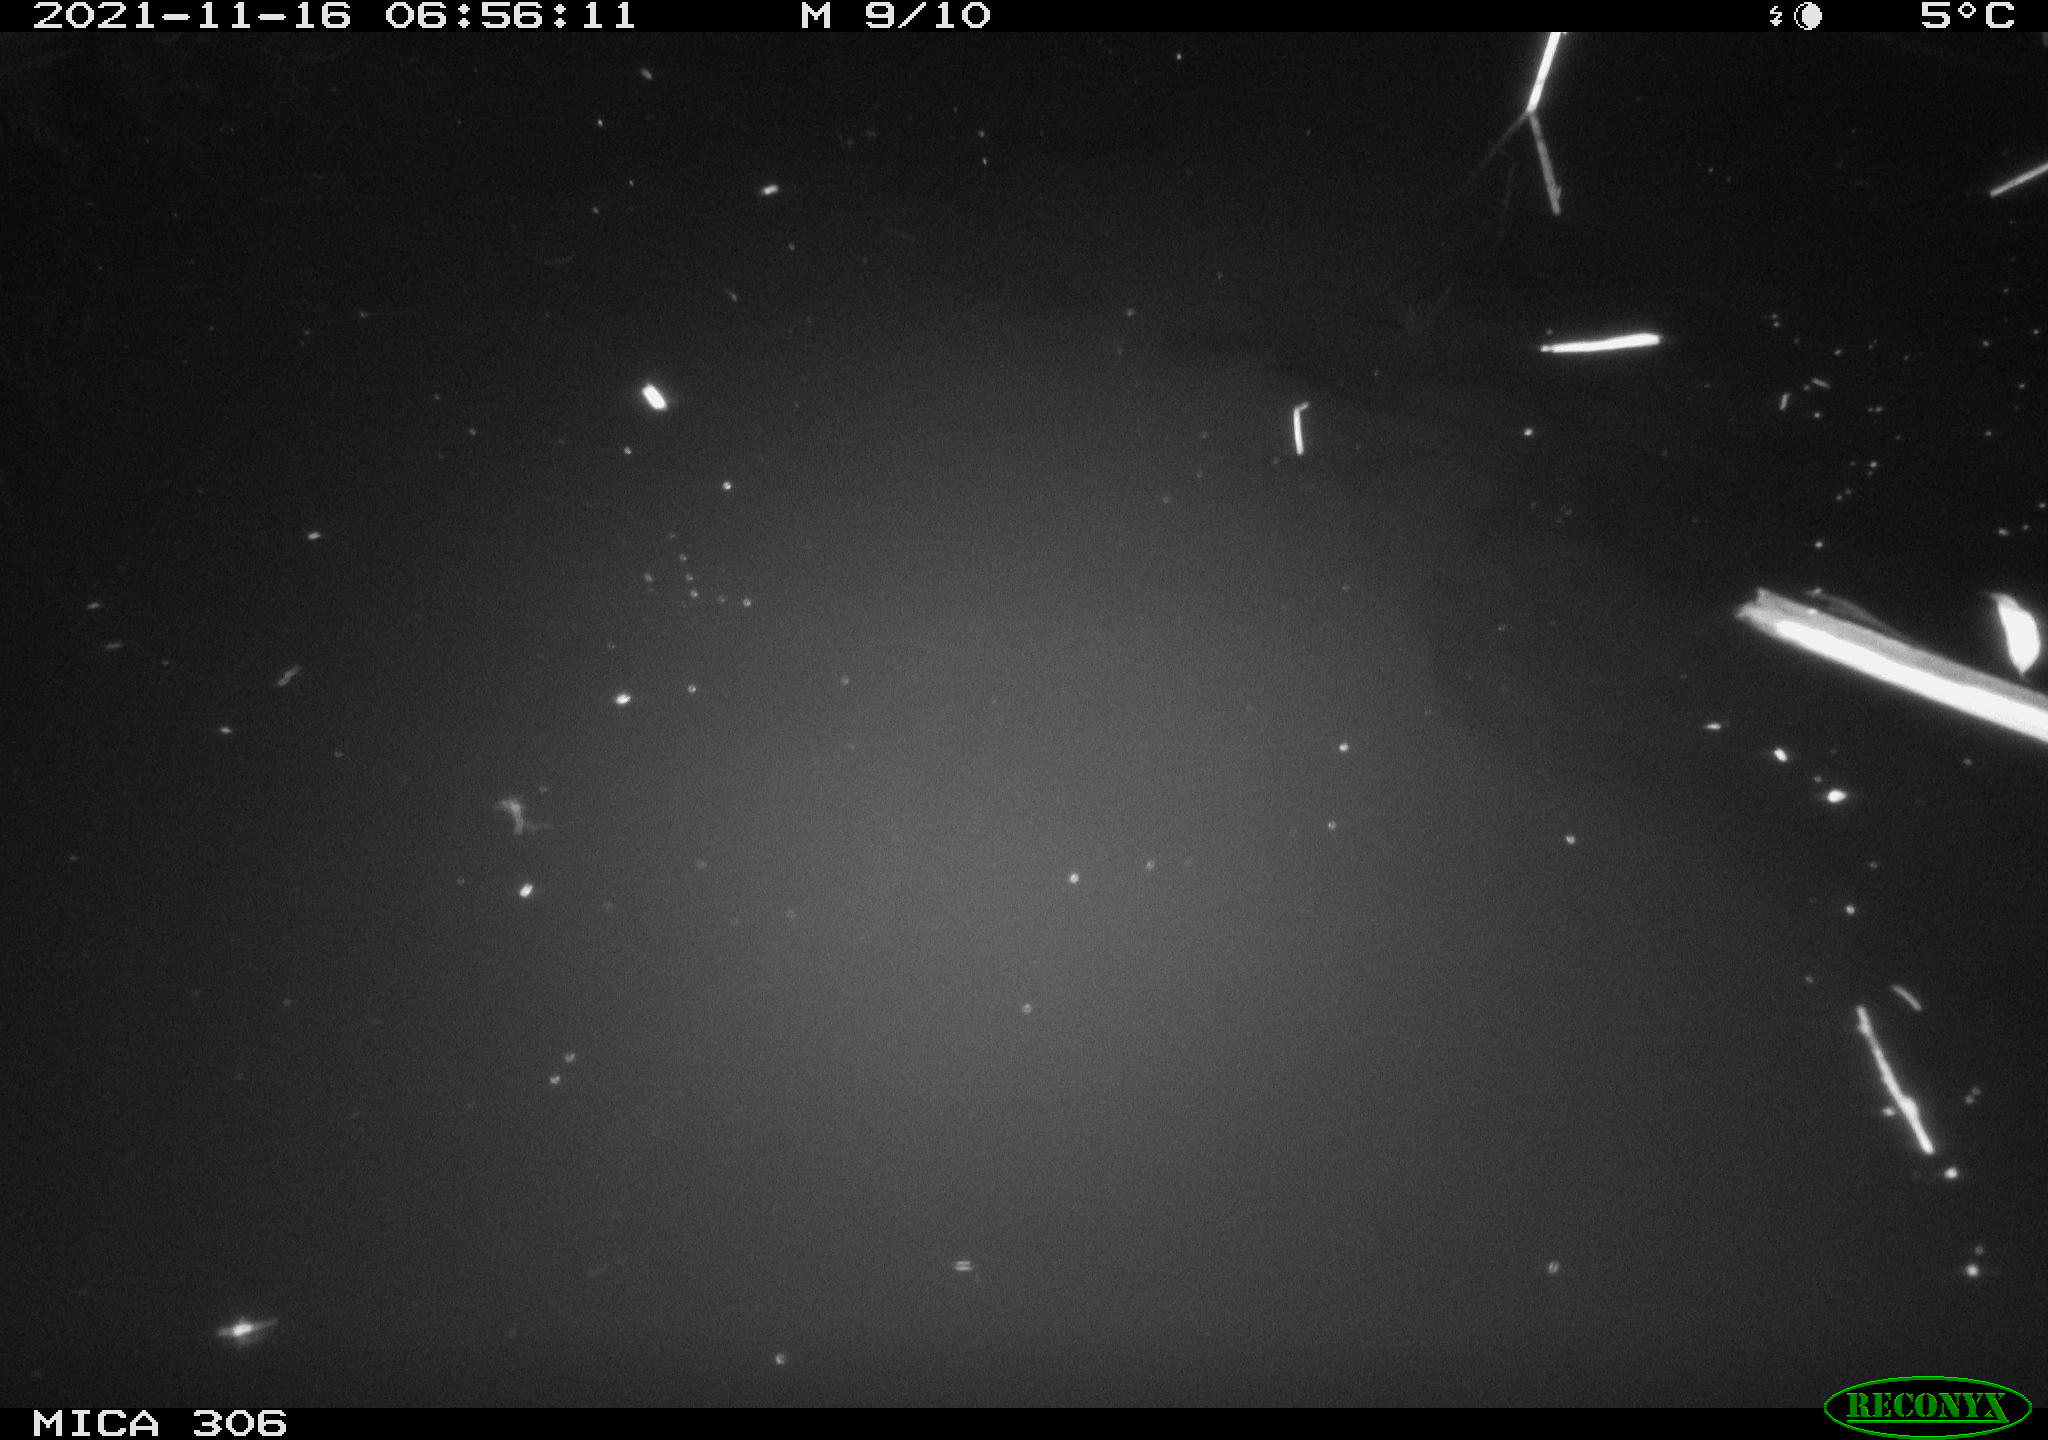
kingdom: Animalia
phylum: Chordata
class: Mammalia
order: Rodentia
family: Muridae
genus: Rattus
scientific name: Rattus norvegicus
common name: Brown rat
